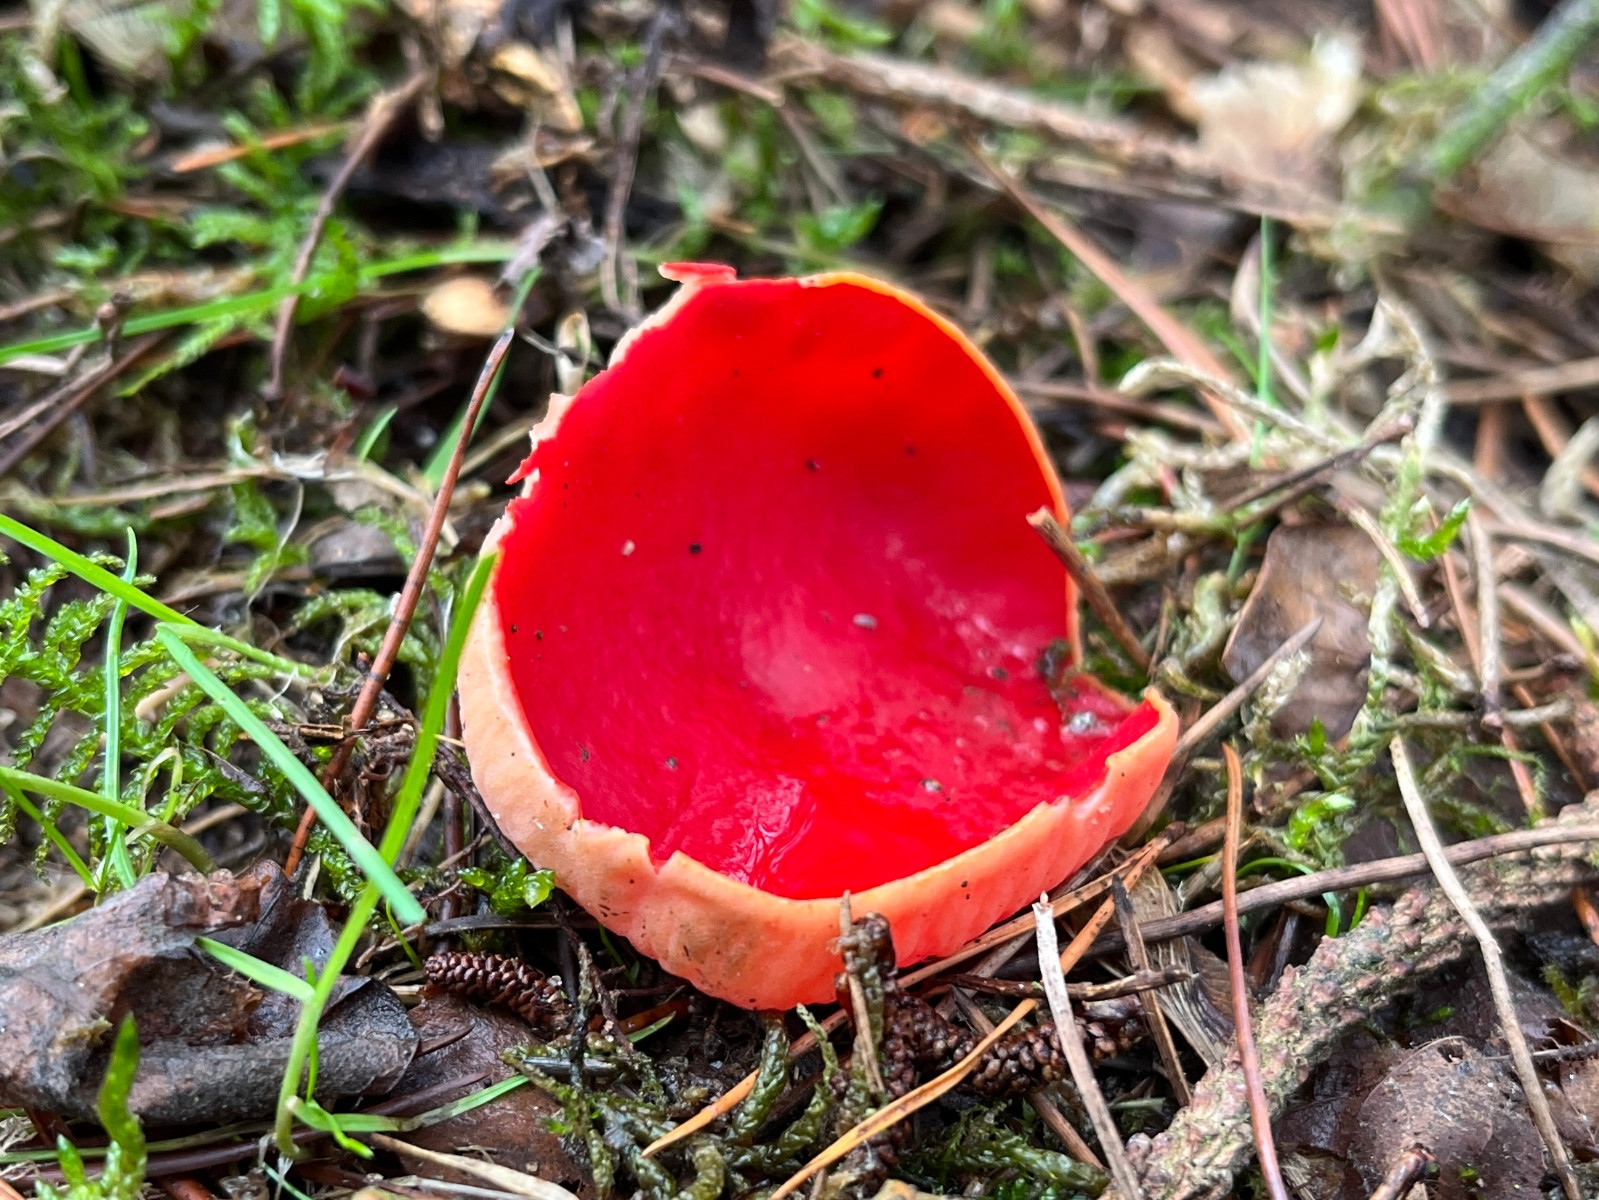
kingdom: Fungi
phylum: Ascomycota
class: Pezizomycetes
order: Pezizales
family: Sarcoscyphaceae
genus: Sarcoscypha
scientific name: Sarcoscypha
